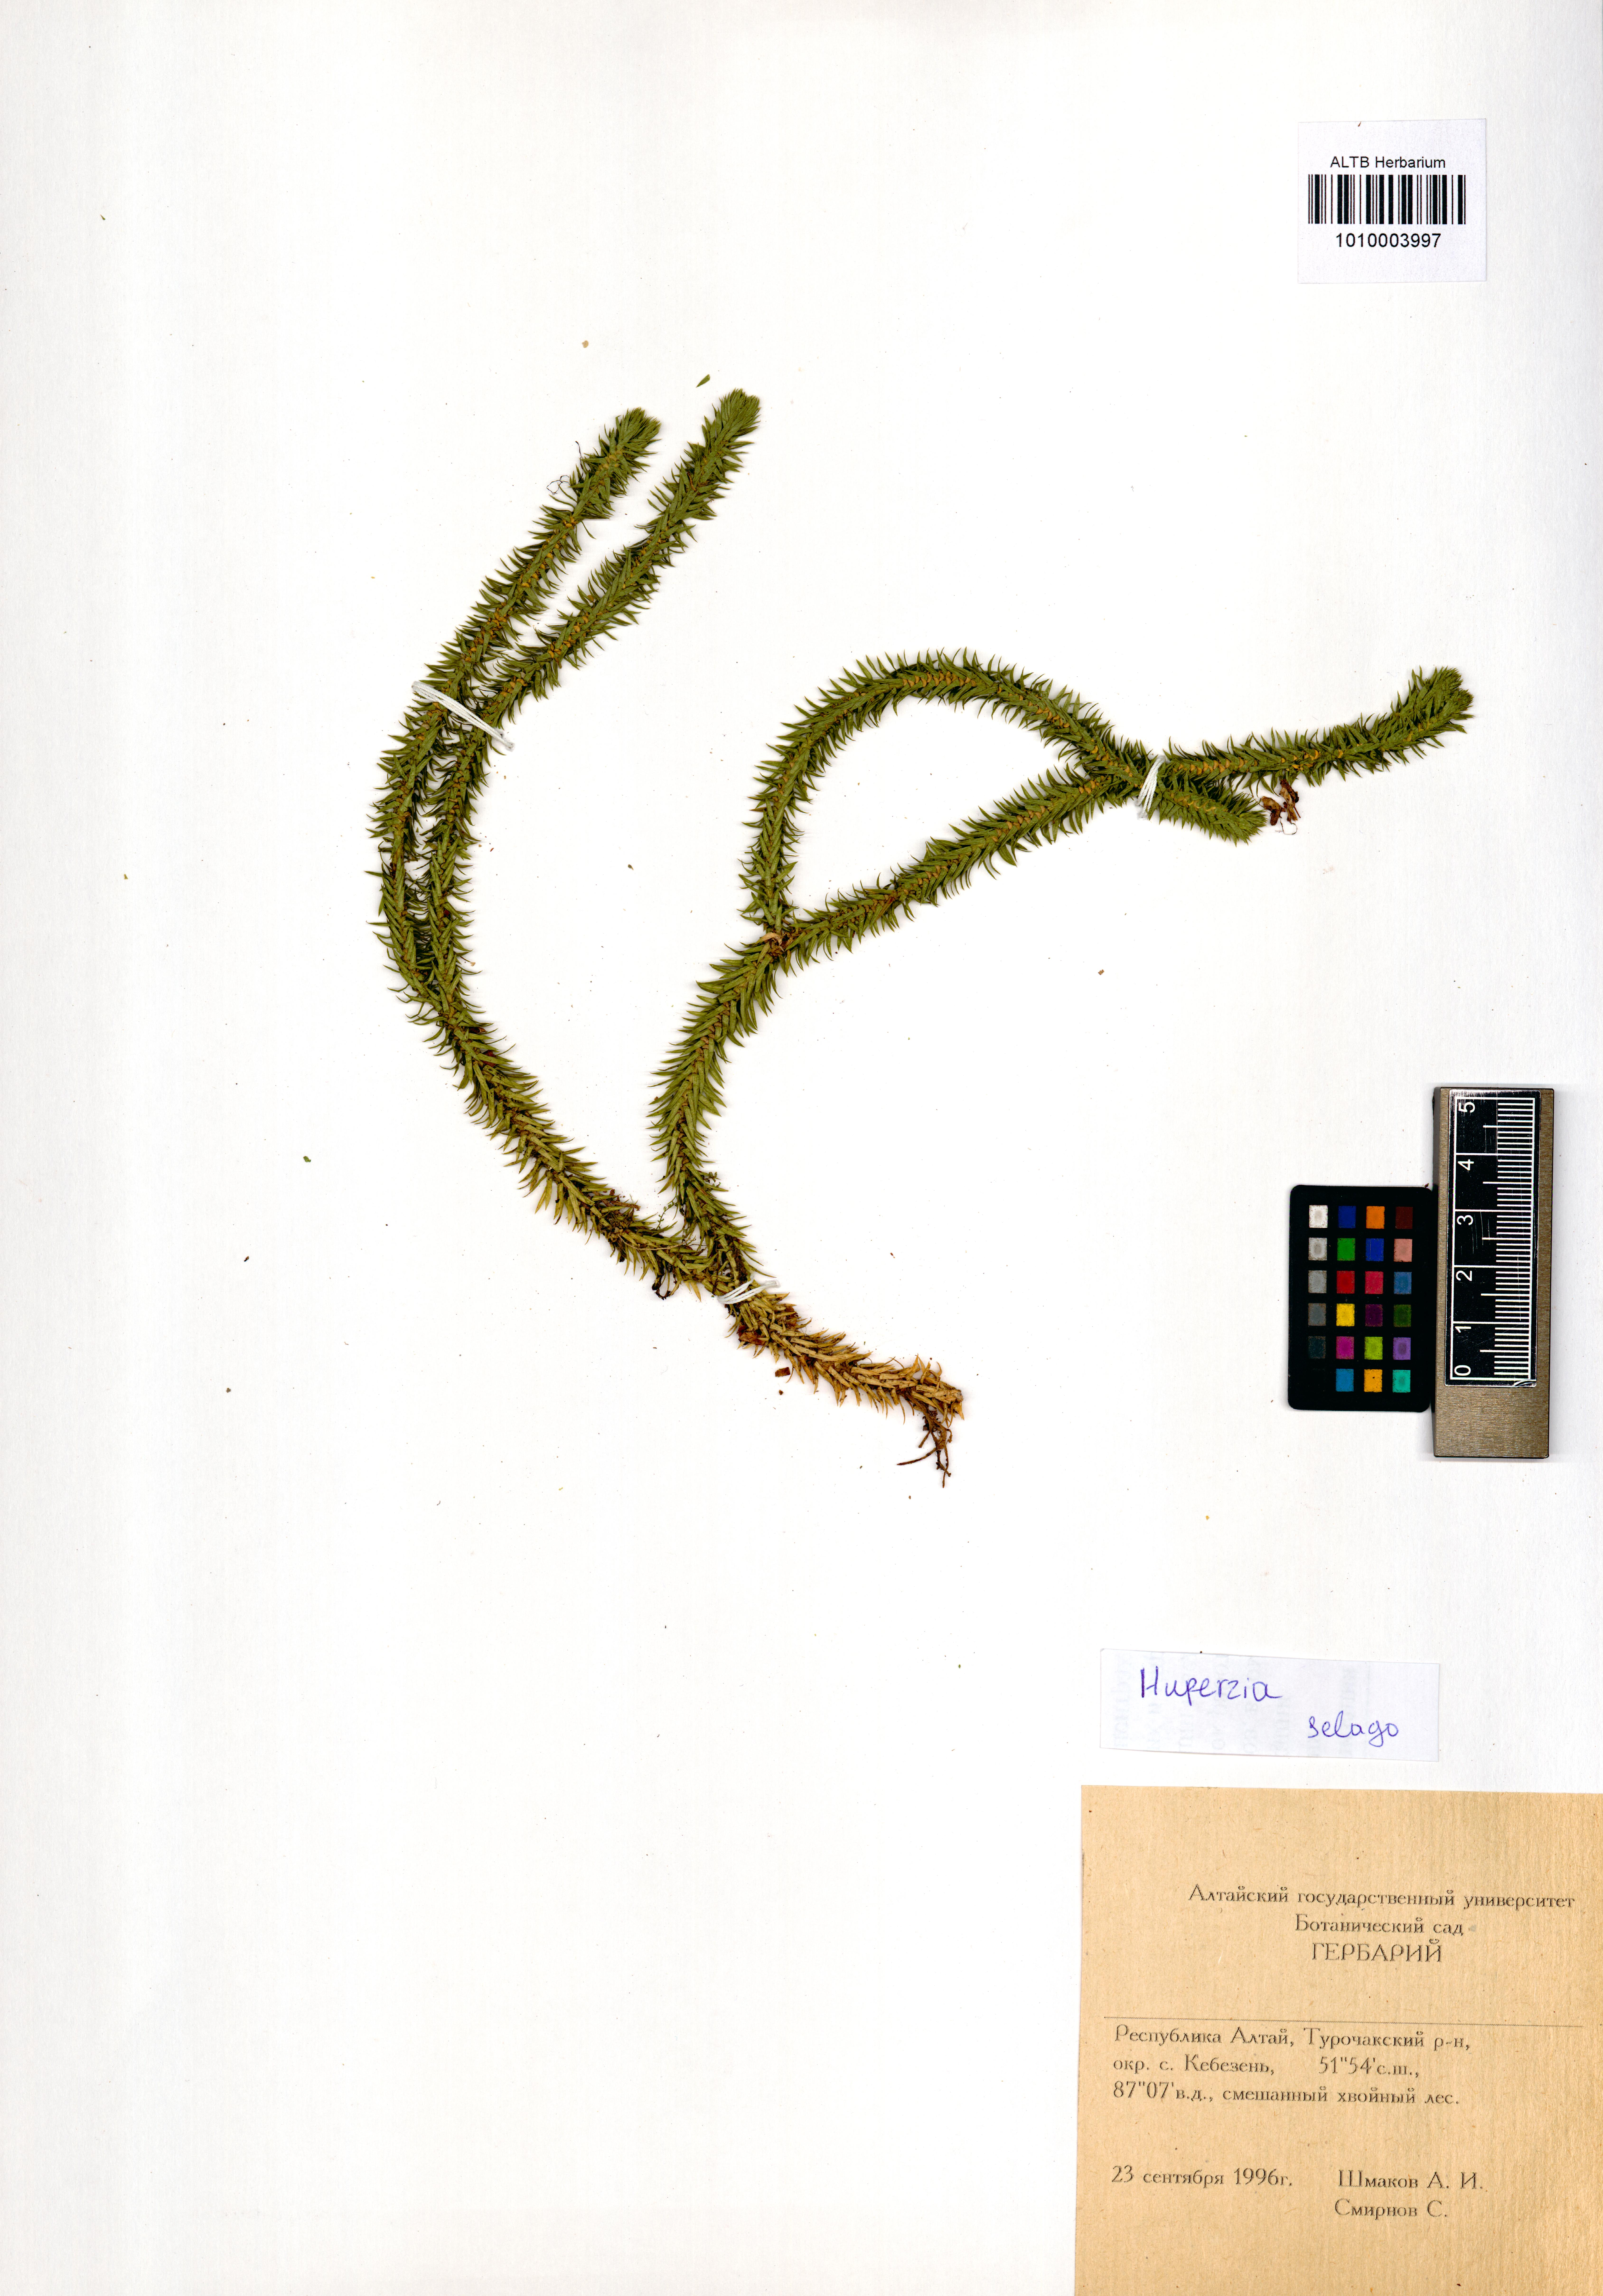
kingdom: Plantae
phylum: Tracheophyta
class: Lycopodiopsida
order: Lycopodiales
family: Lycopodiaceae
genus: Huperzia
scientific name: Huperzia selago
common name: Northern firmoss
